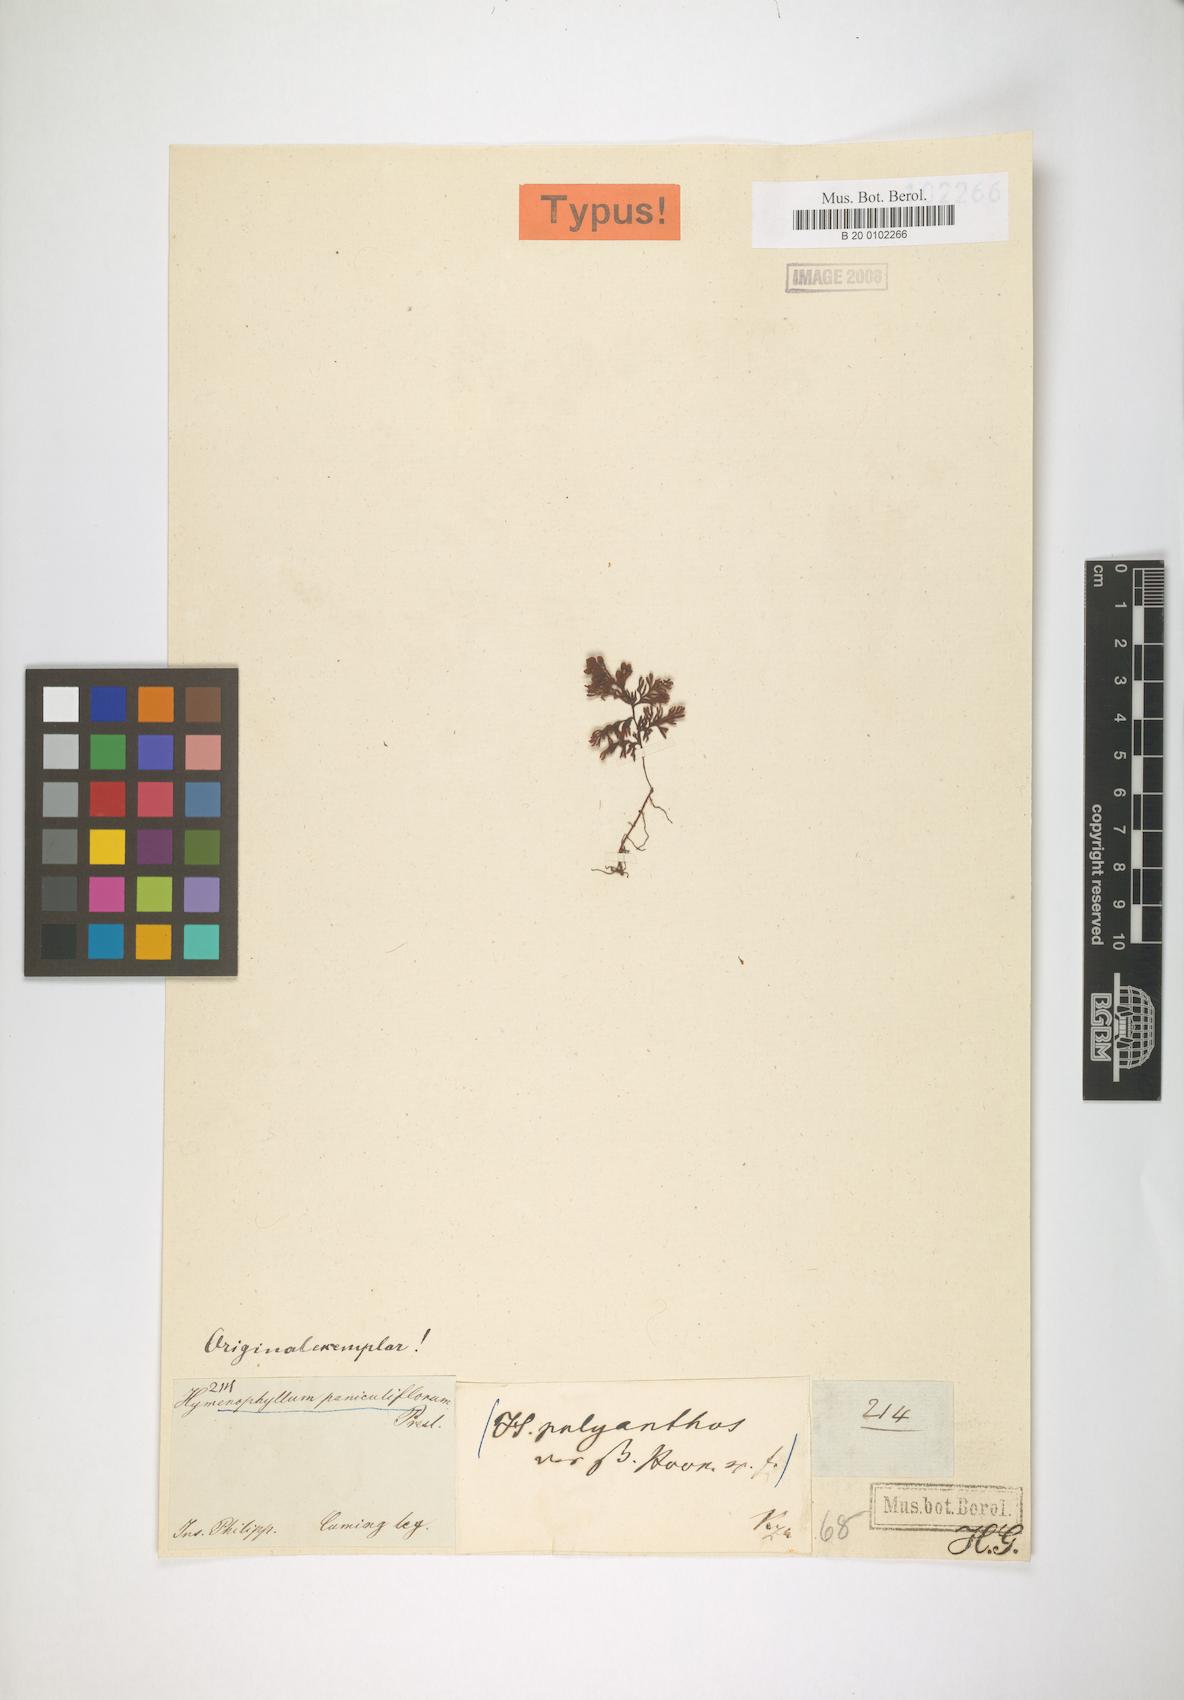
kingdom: Plantae
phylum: Tracheophyta
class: Polypodiopsida
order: Hymenophyllales
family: Hymenophyllaceae
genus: Hymenophyllum
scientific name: Hymenophyllum paniculiflorum
